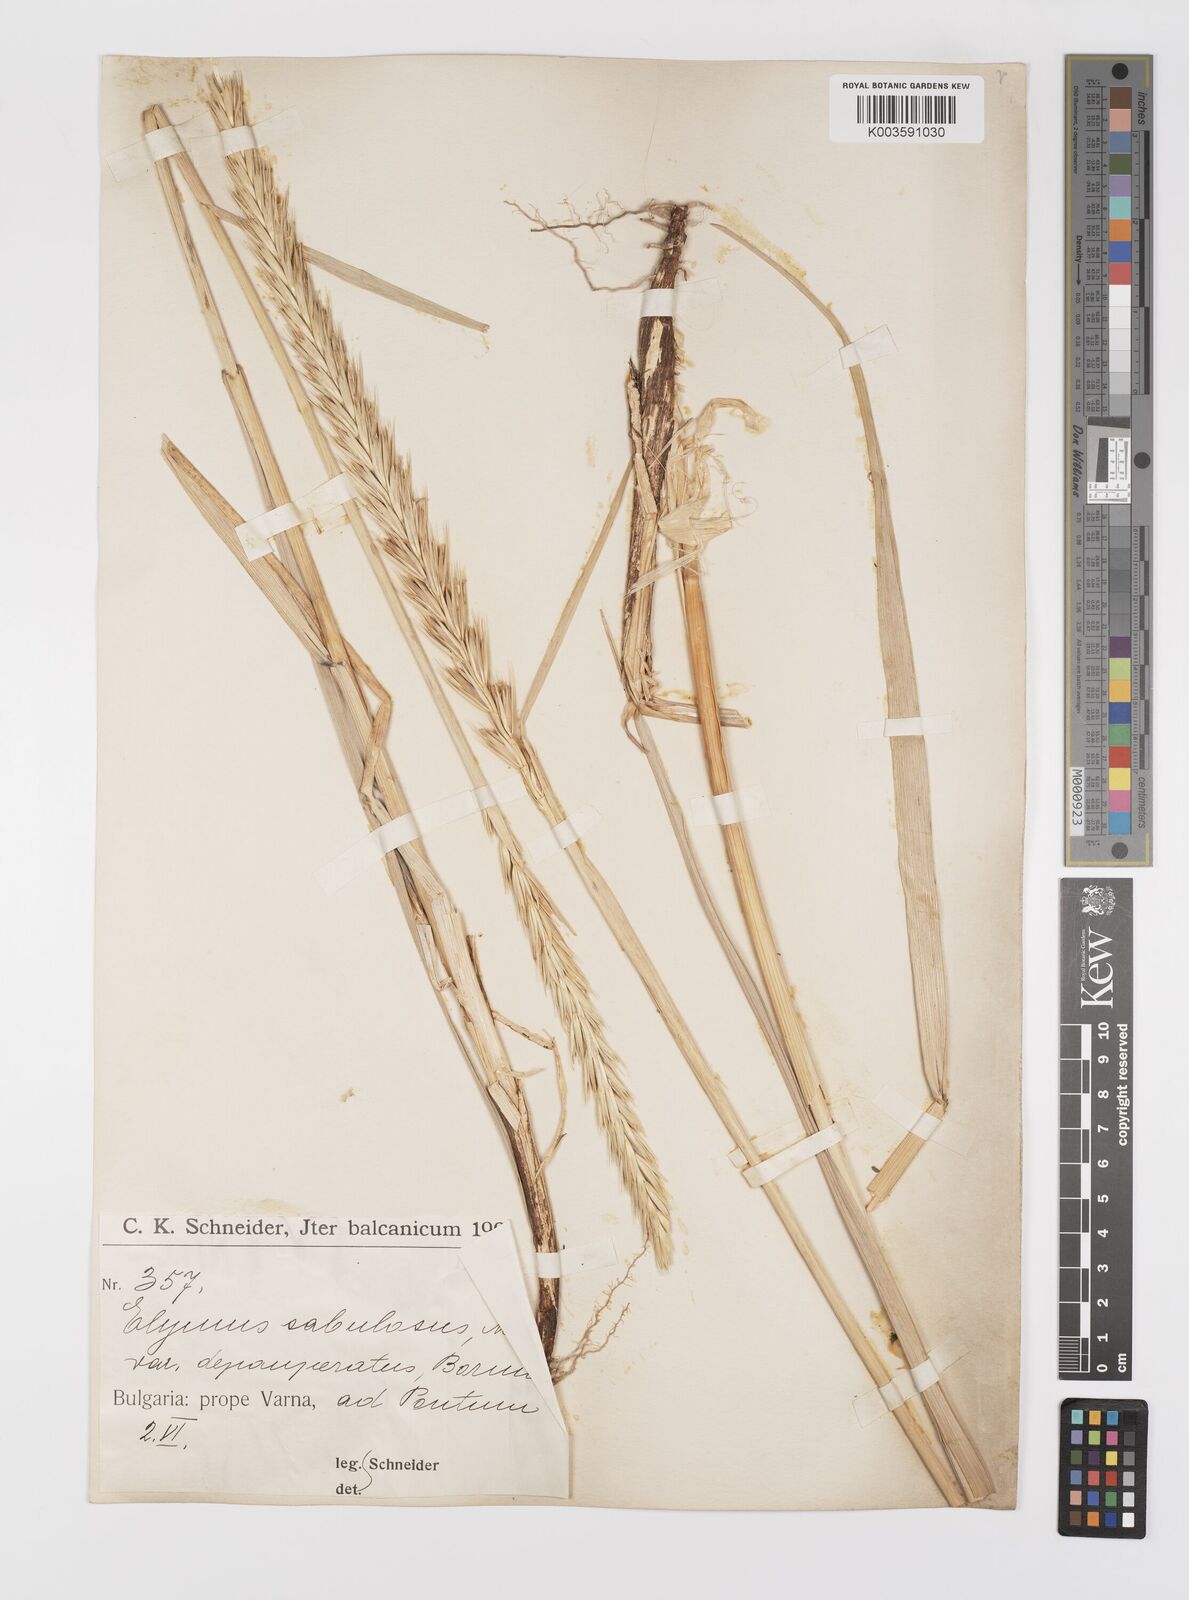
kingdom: Plantae
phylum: Tracheophyta
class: Liliopsida
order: Poales
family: Poaceae
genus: Leymus
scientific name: Leymus racemosus
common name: Mammoth wildrye
